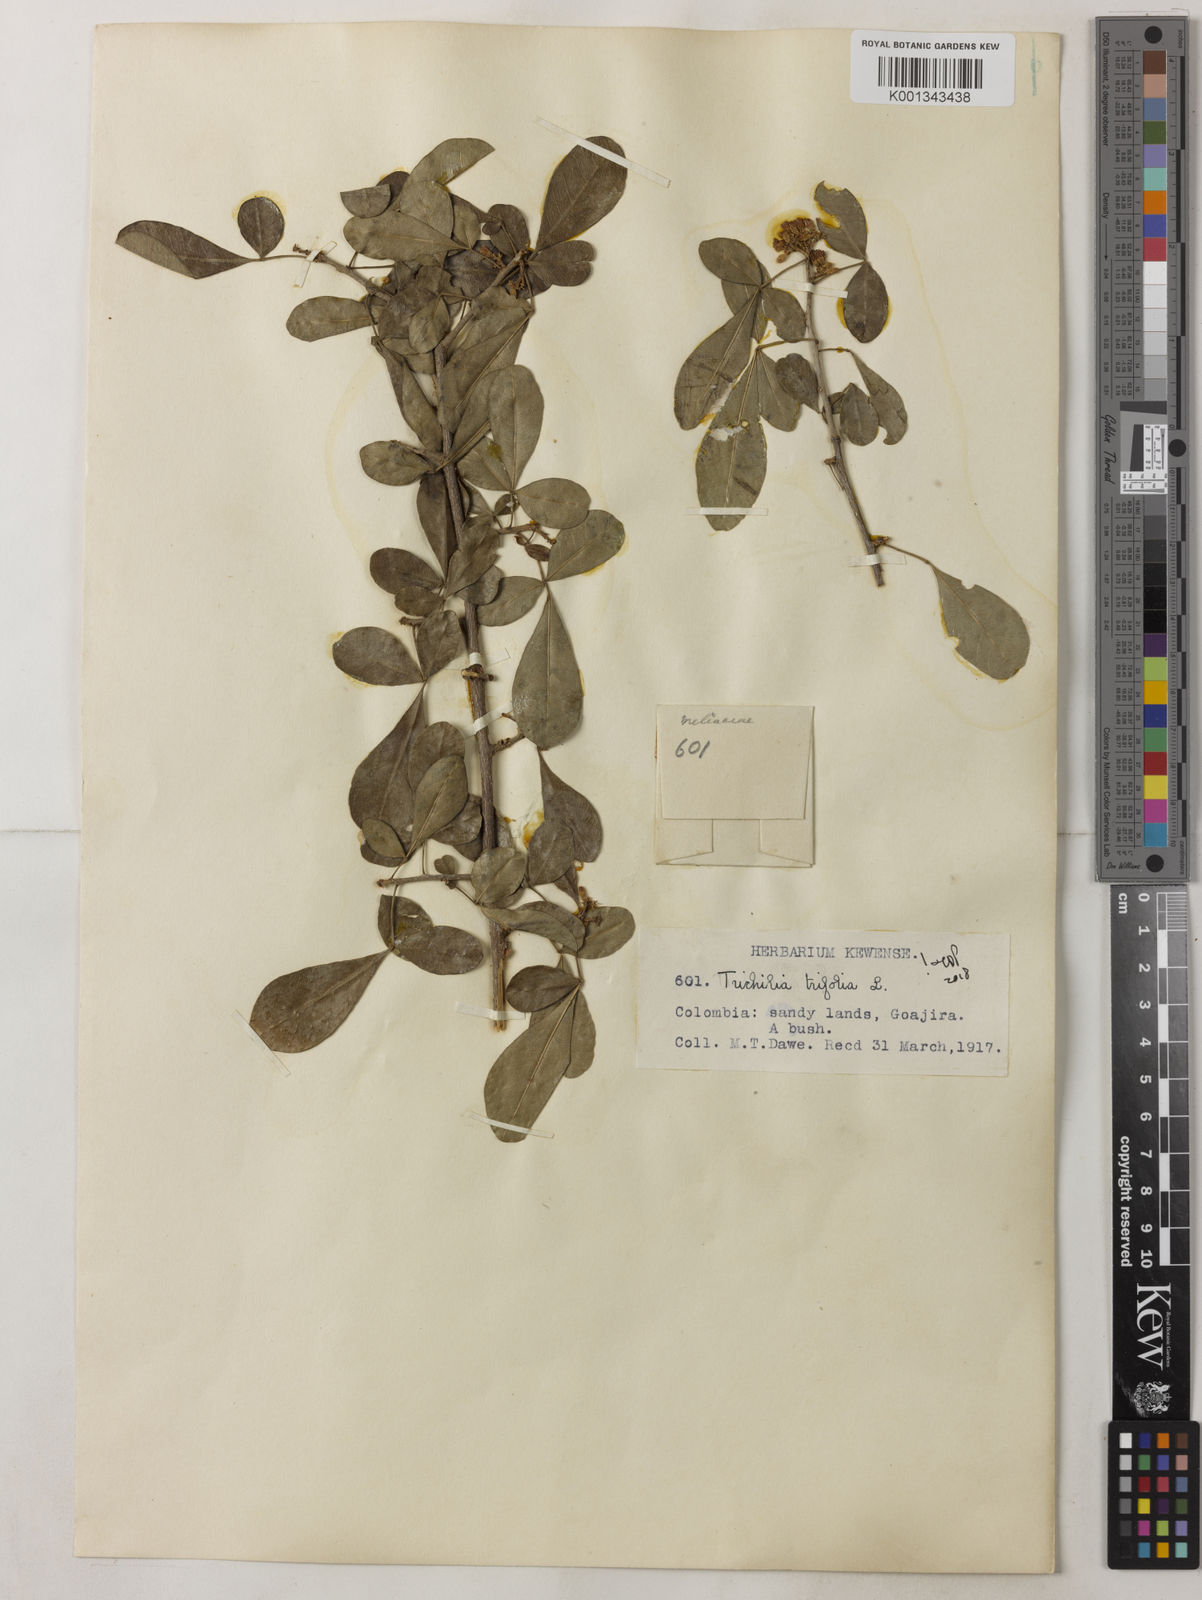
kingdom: Plantae
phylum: Tracheophyta
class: Magnoliopsida
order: Sapindales
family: Meliaceae
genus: Trichilia
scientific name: Trichilia trifolia
